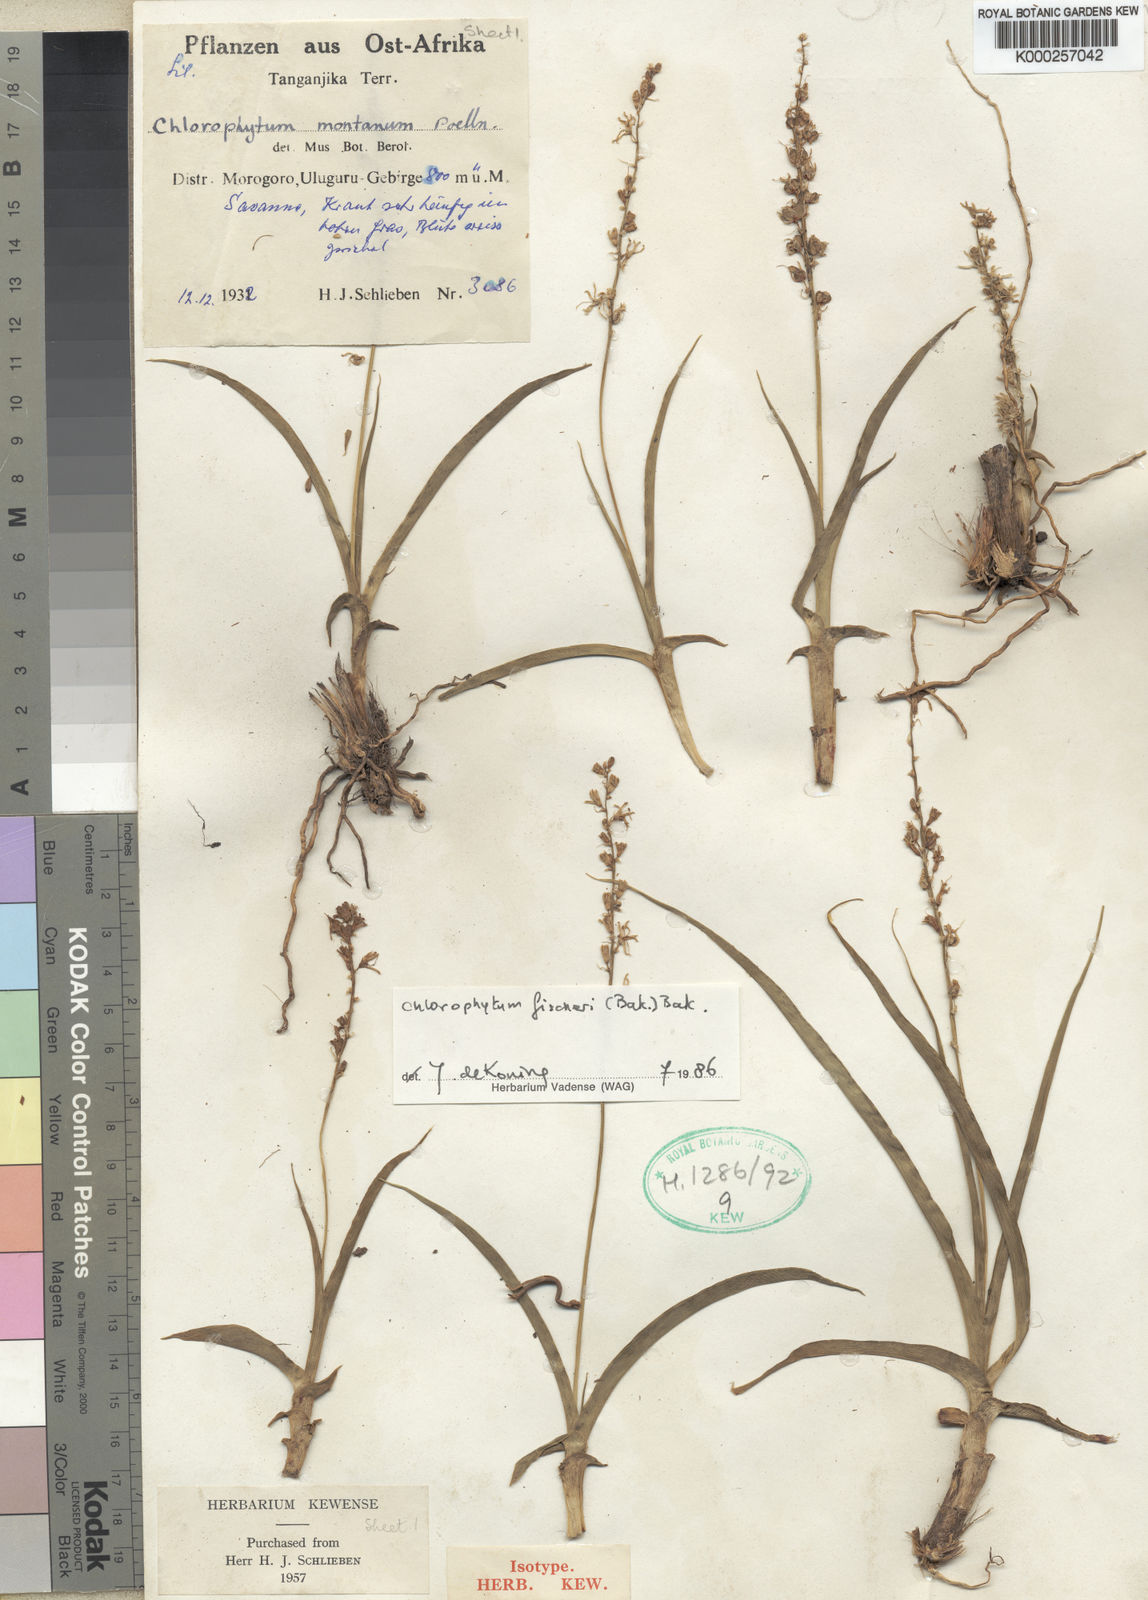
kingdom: Plantae
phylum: Tracheophyta
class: Liliopsida
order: Asparagales
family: Asparagaceae
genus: Chlorophytum
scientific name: Chlorophytum fischeri
